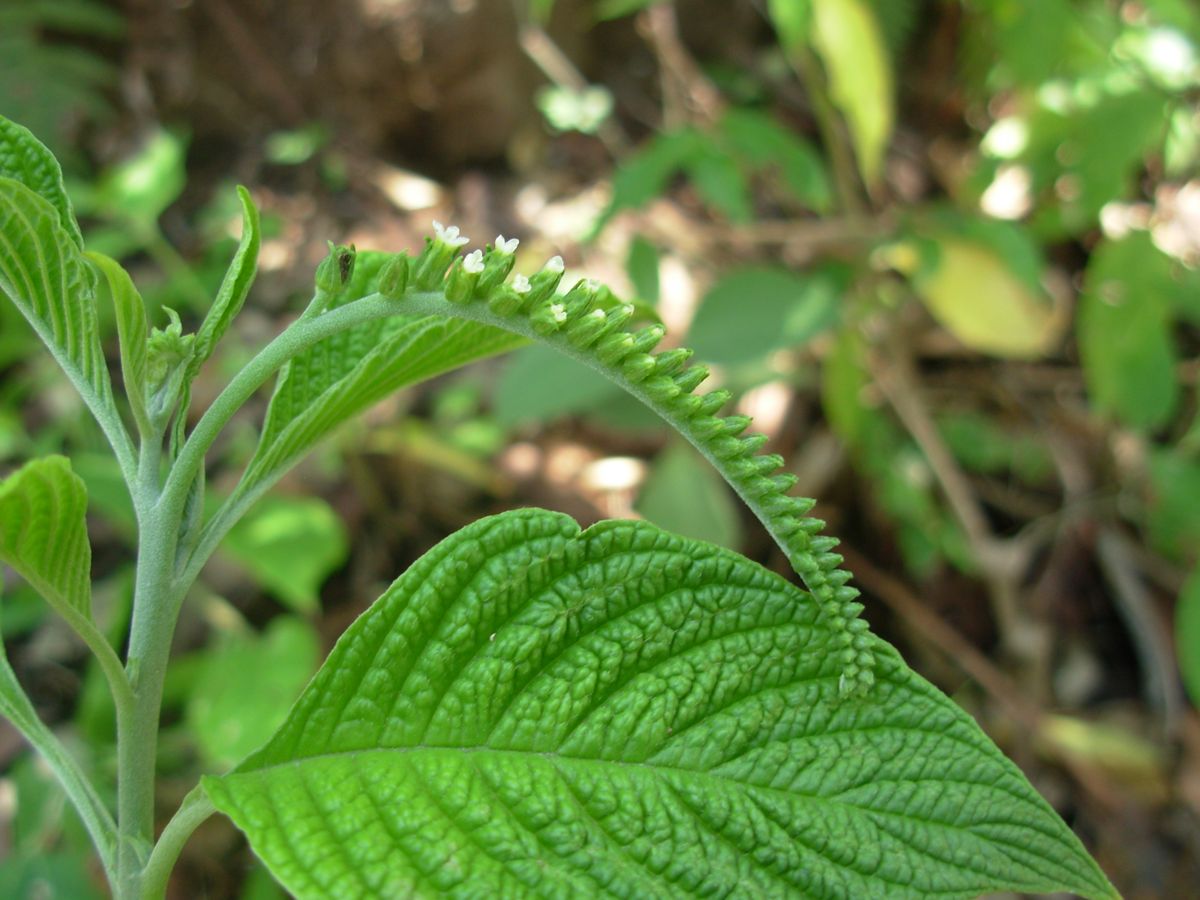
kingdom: Plantae
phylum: Tracheophyta
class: Magnoliopsida
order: Boraginales
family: Heliotropiaceae
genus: Heliotropium
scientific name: Heliotropium rufipilum
